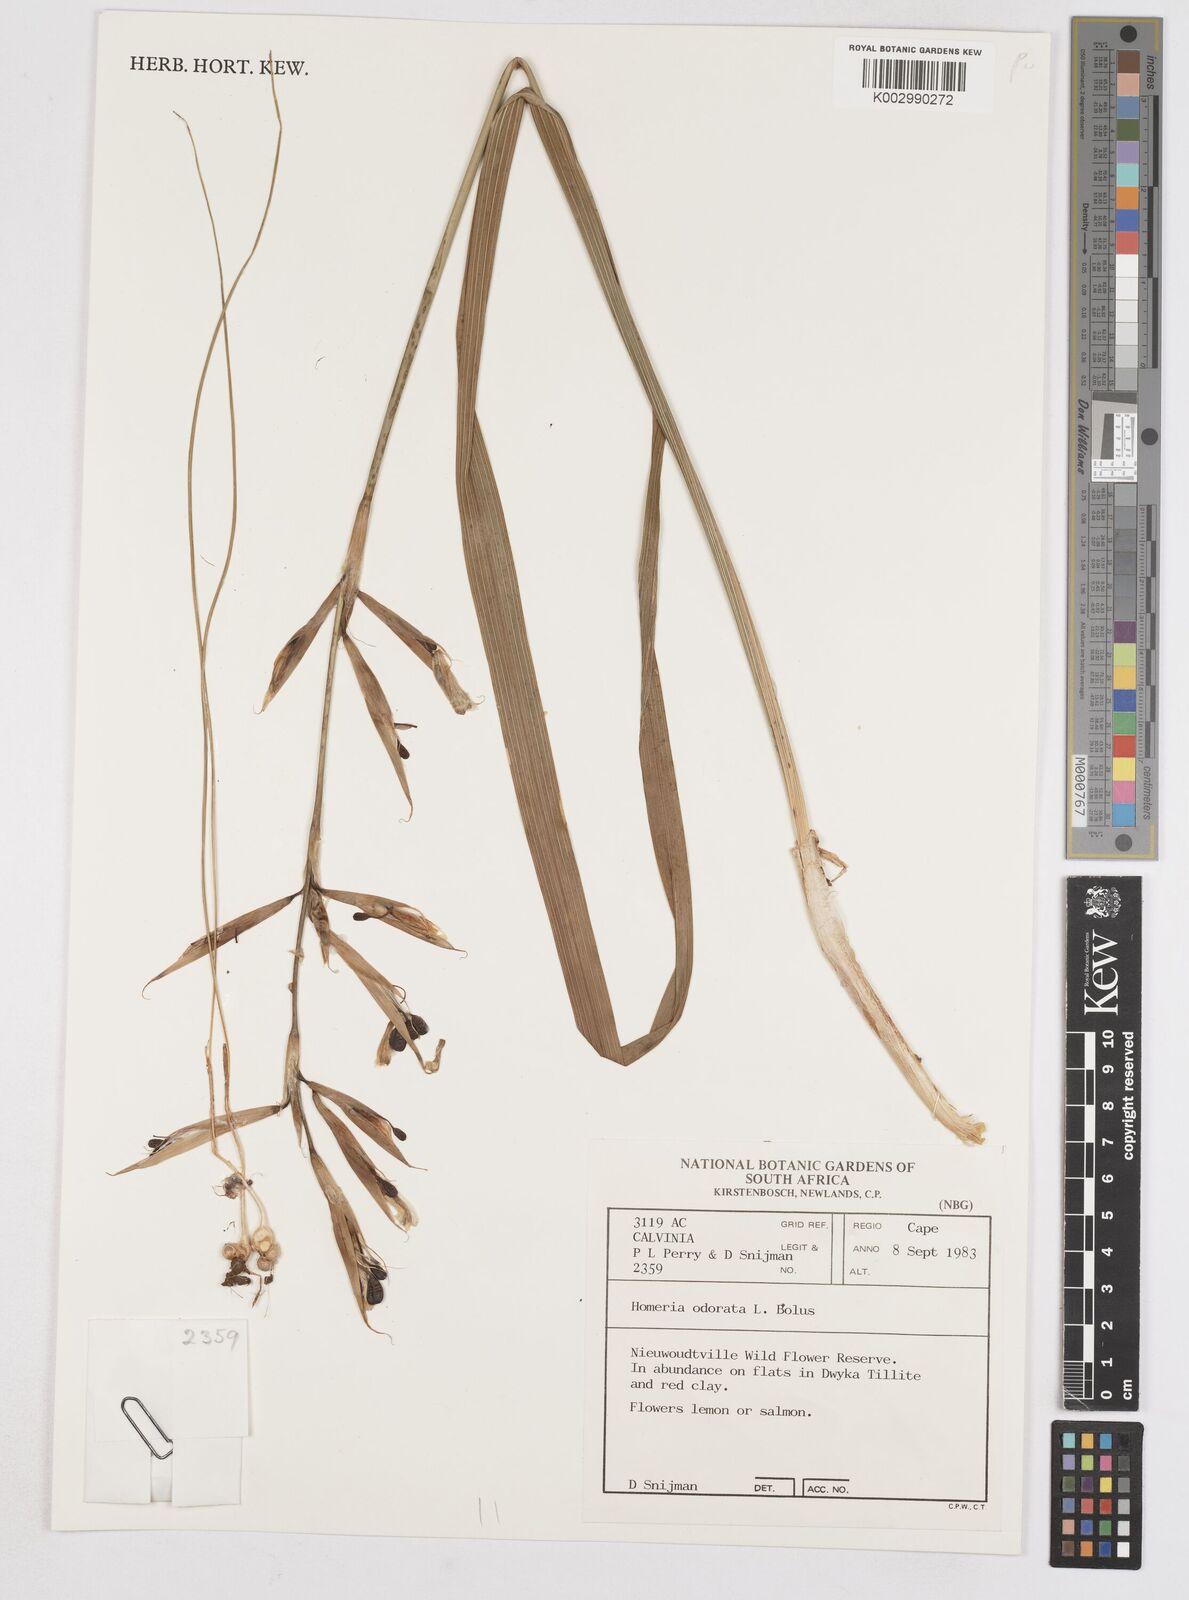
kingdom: Plantae
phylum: Tracheophyta
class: Liliopsida
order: Asparagales
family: Iridaceae
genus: Moraea
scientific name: Moraea
